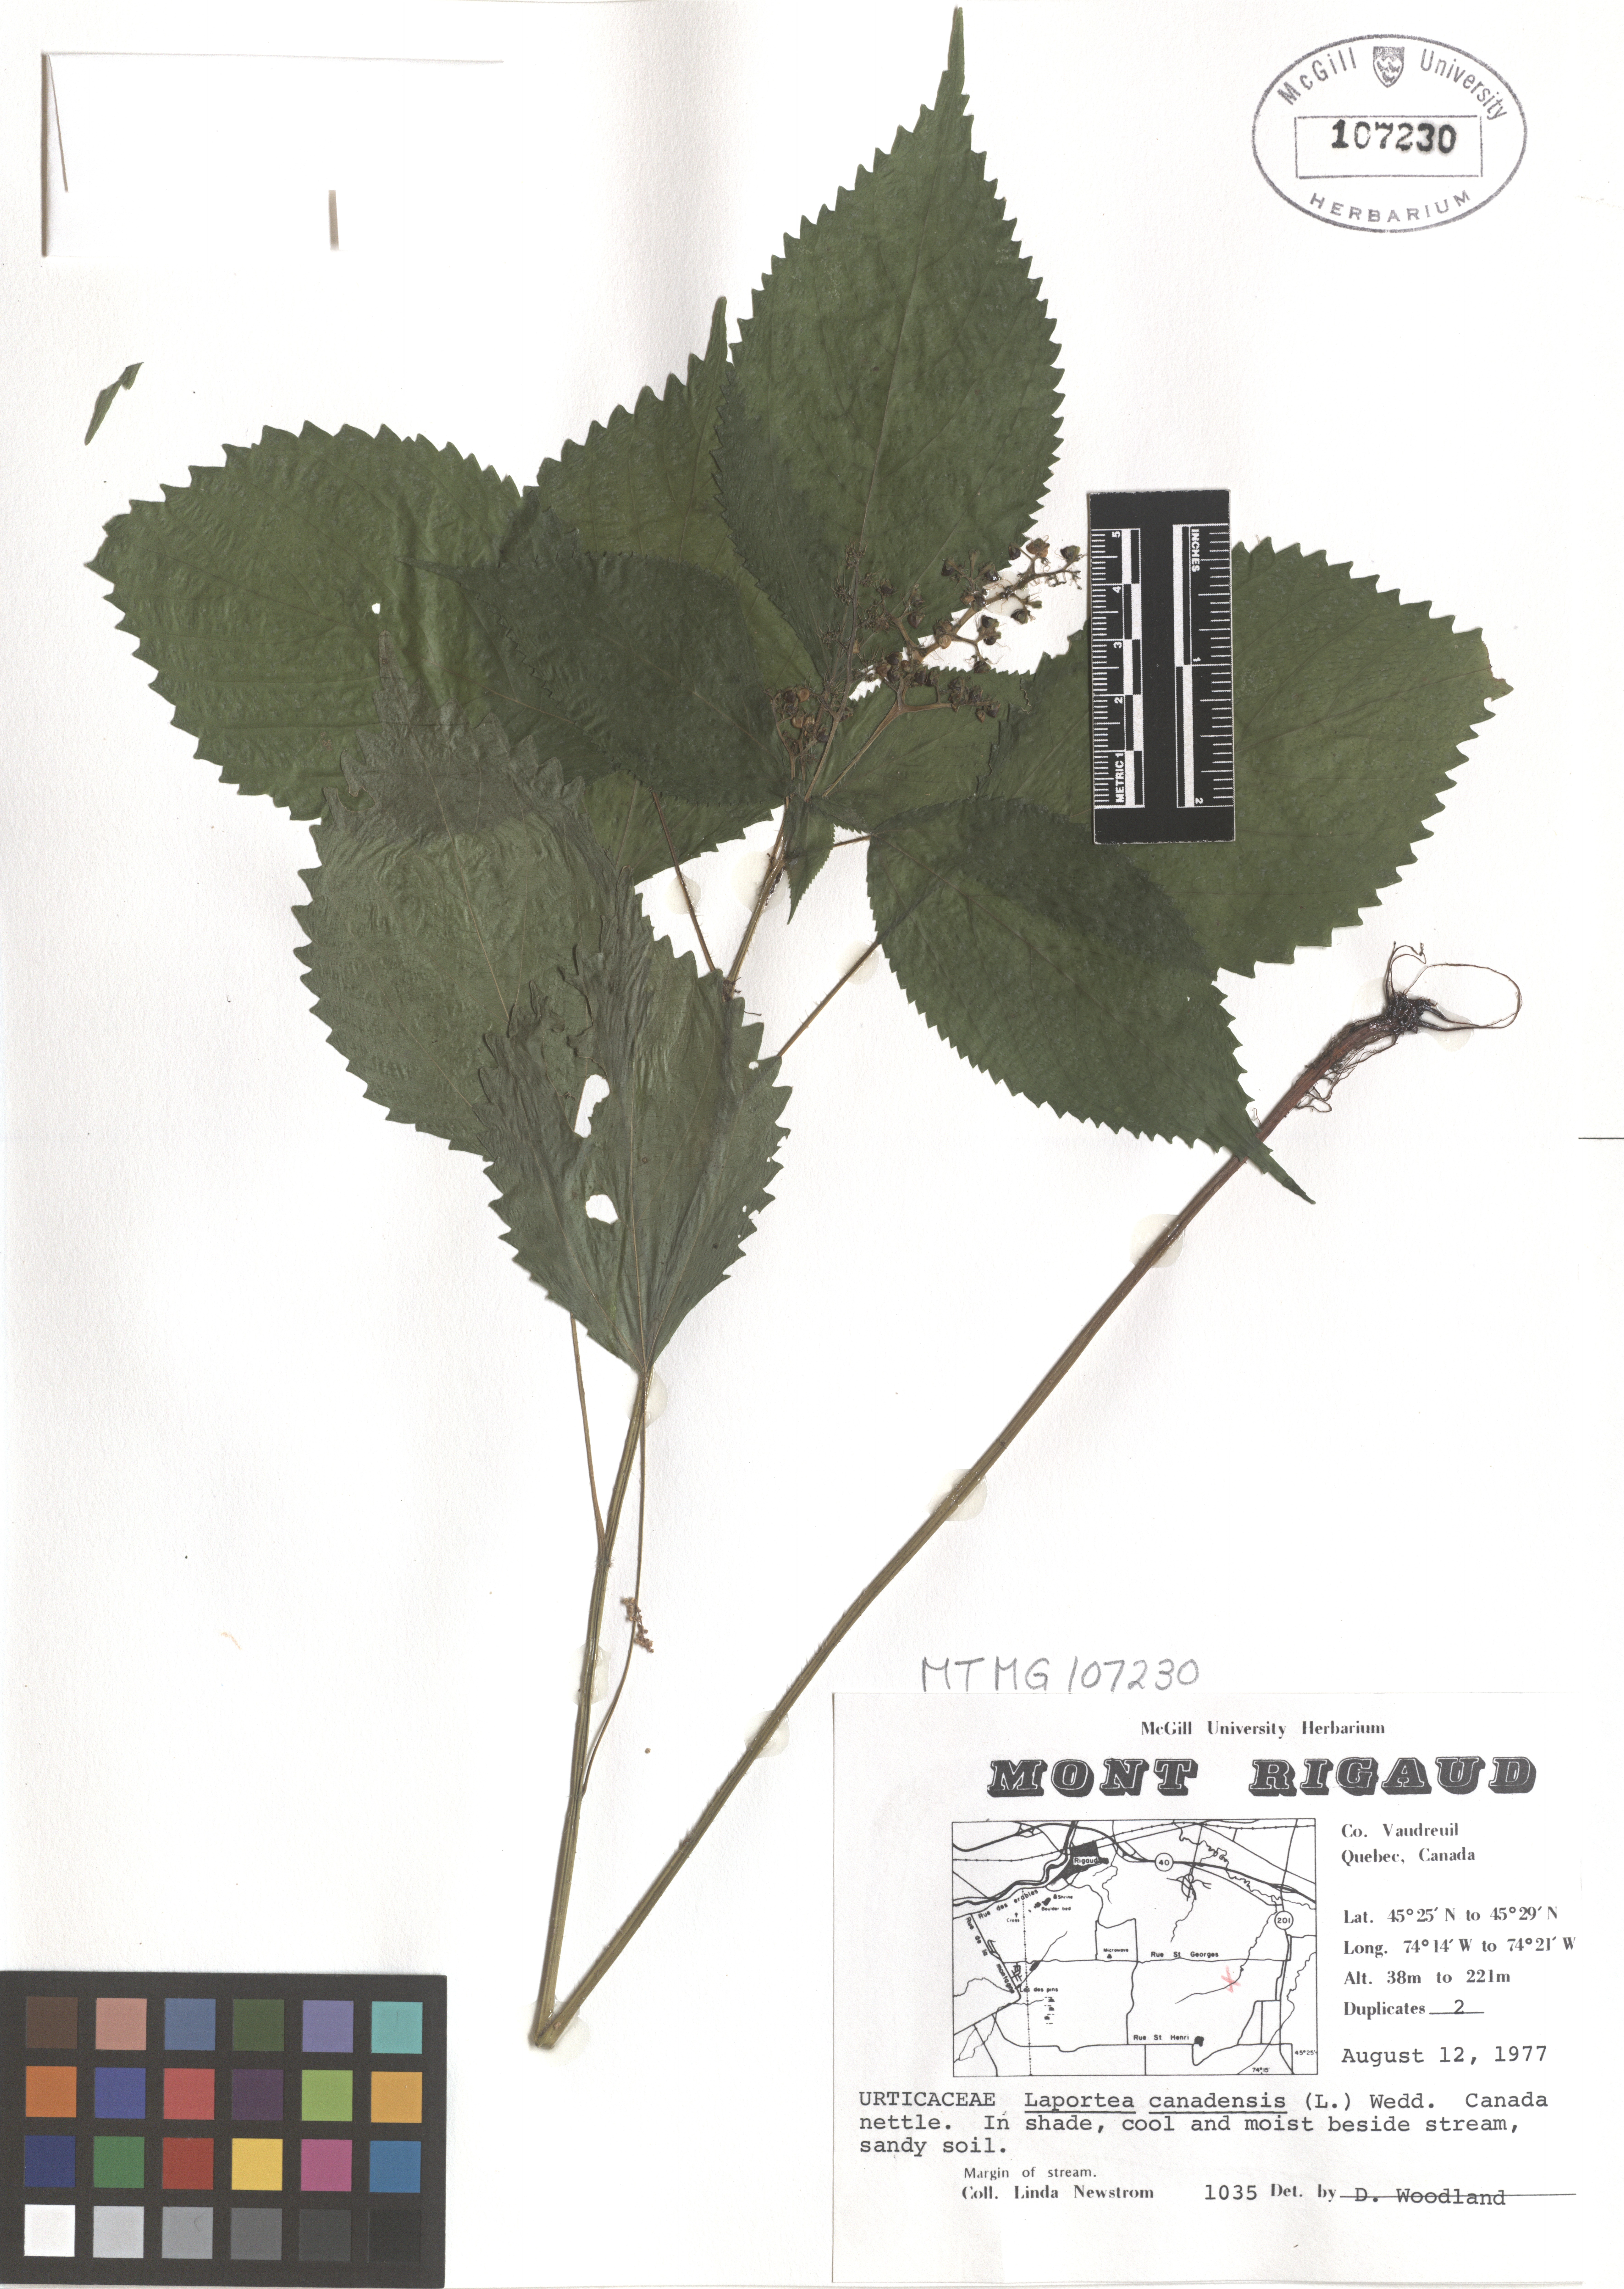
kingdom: Plantae
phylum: Tracheophyta
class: Magnoliopsida
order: Rosales
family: Urticaceae
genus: Laportea
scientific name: Laportea canadensis
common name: Canada nettle
